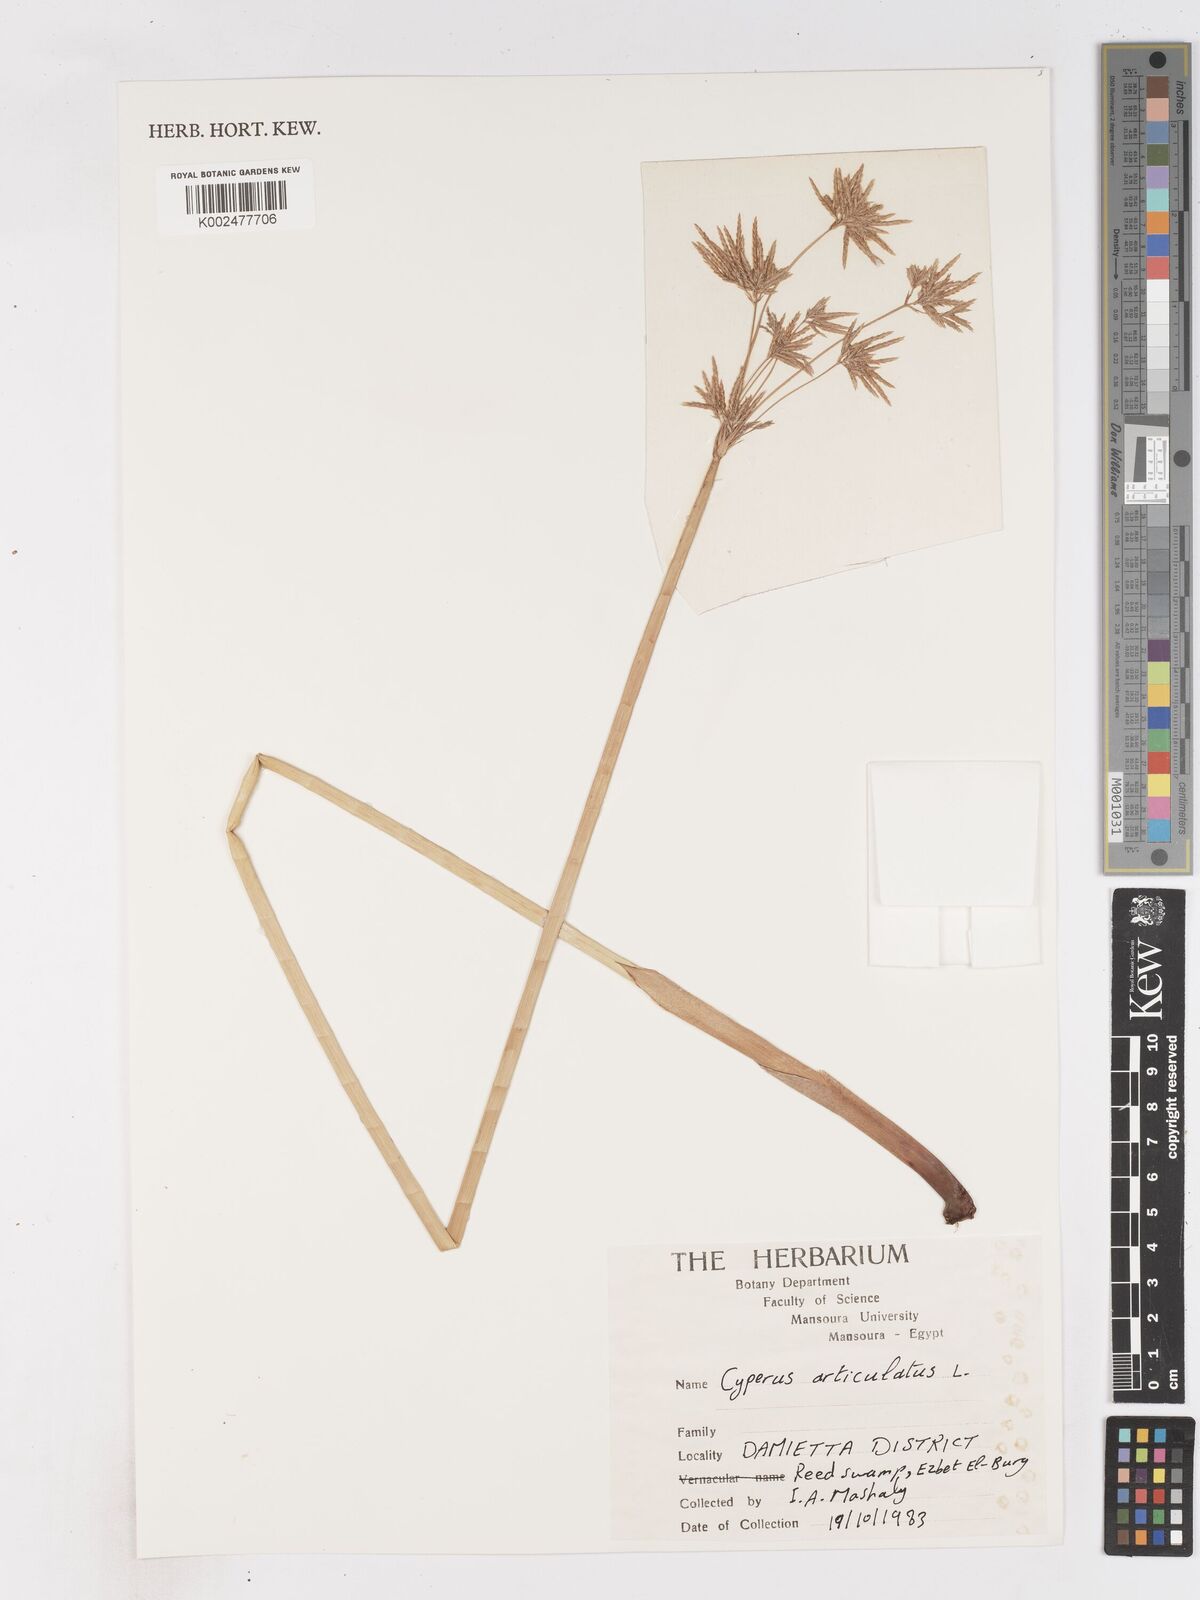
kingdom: Plantae
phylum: Tracheophyta
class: Liliopsida
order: Poales
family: Cyperaceae
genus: Cyperus
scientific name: Cyperus articulatus
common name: Jointed flatsedge
